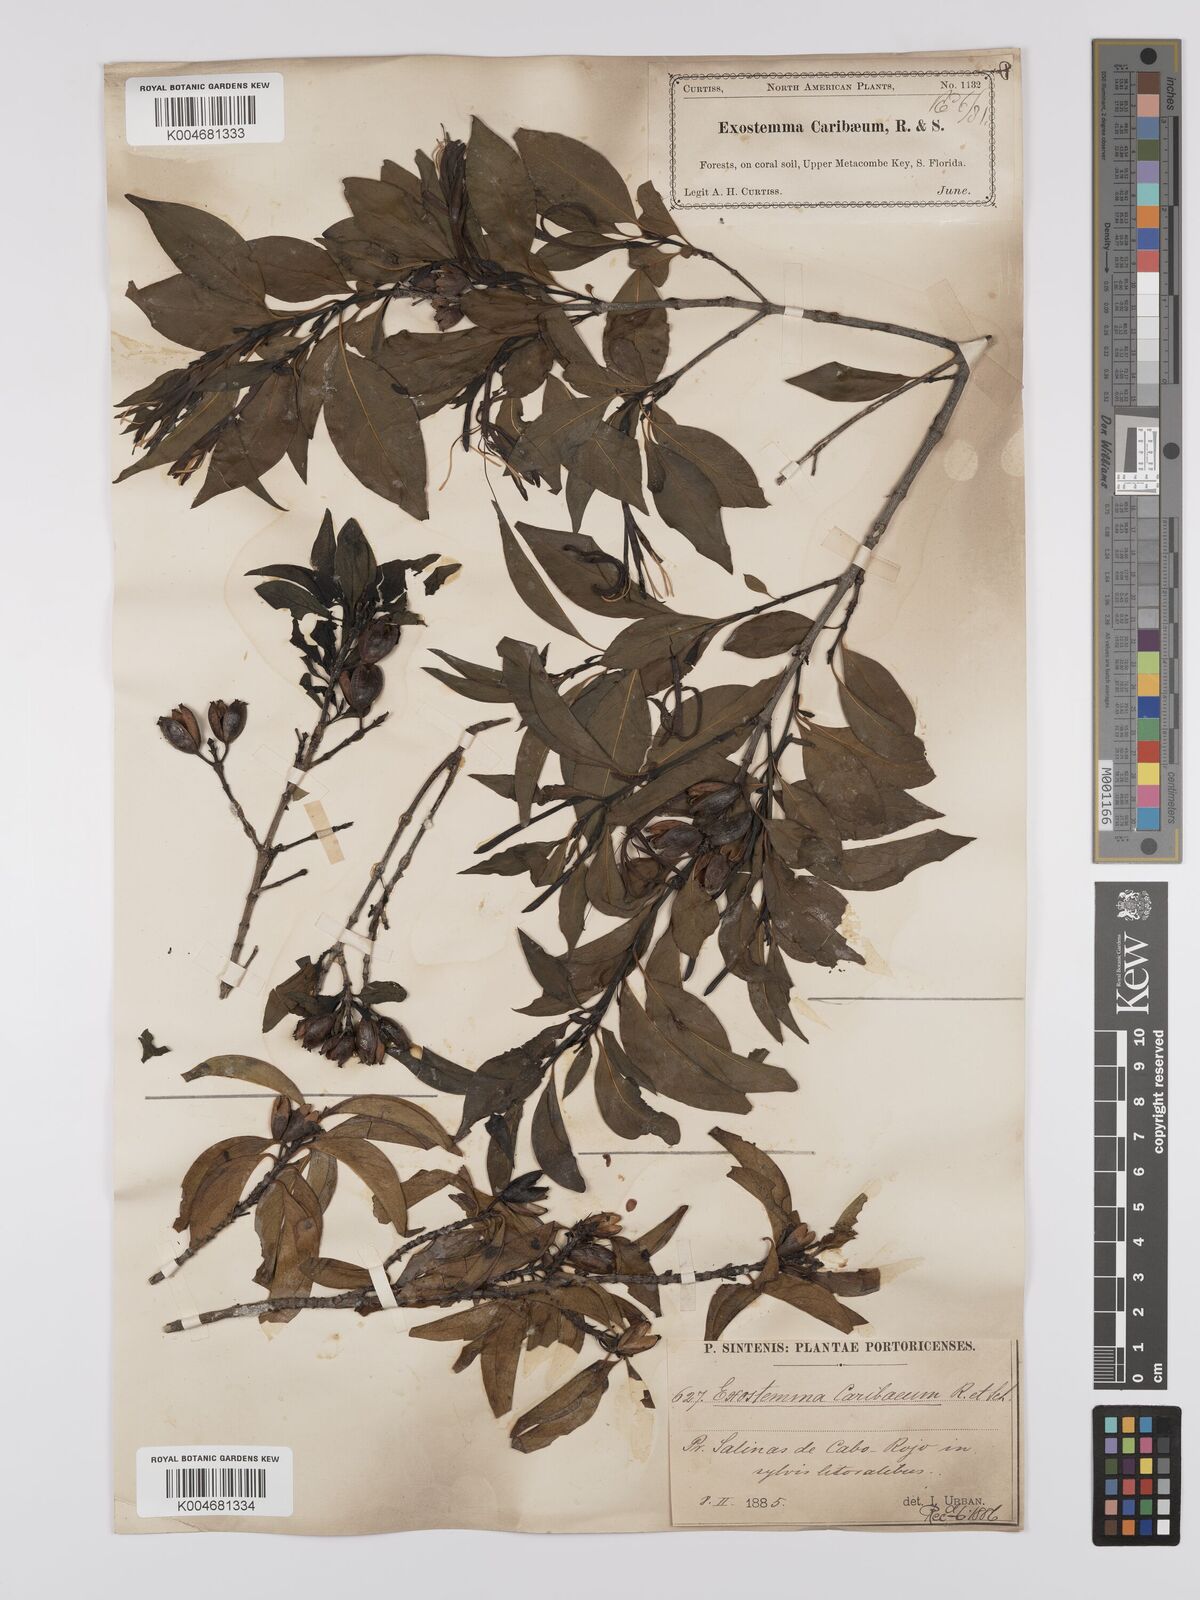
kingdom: Plantae
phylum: Tracheophyta
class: Magnoliopsida
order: Gentianales
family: Rubiaceae
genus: Exostema
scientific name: Exostema caribaeum
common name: Princewood
